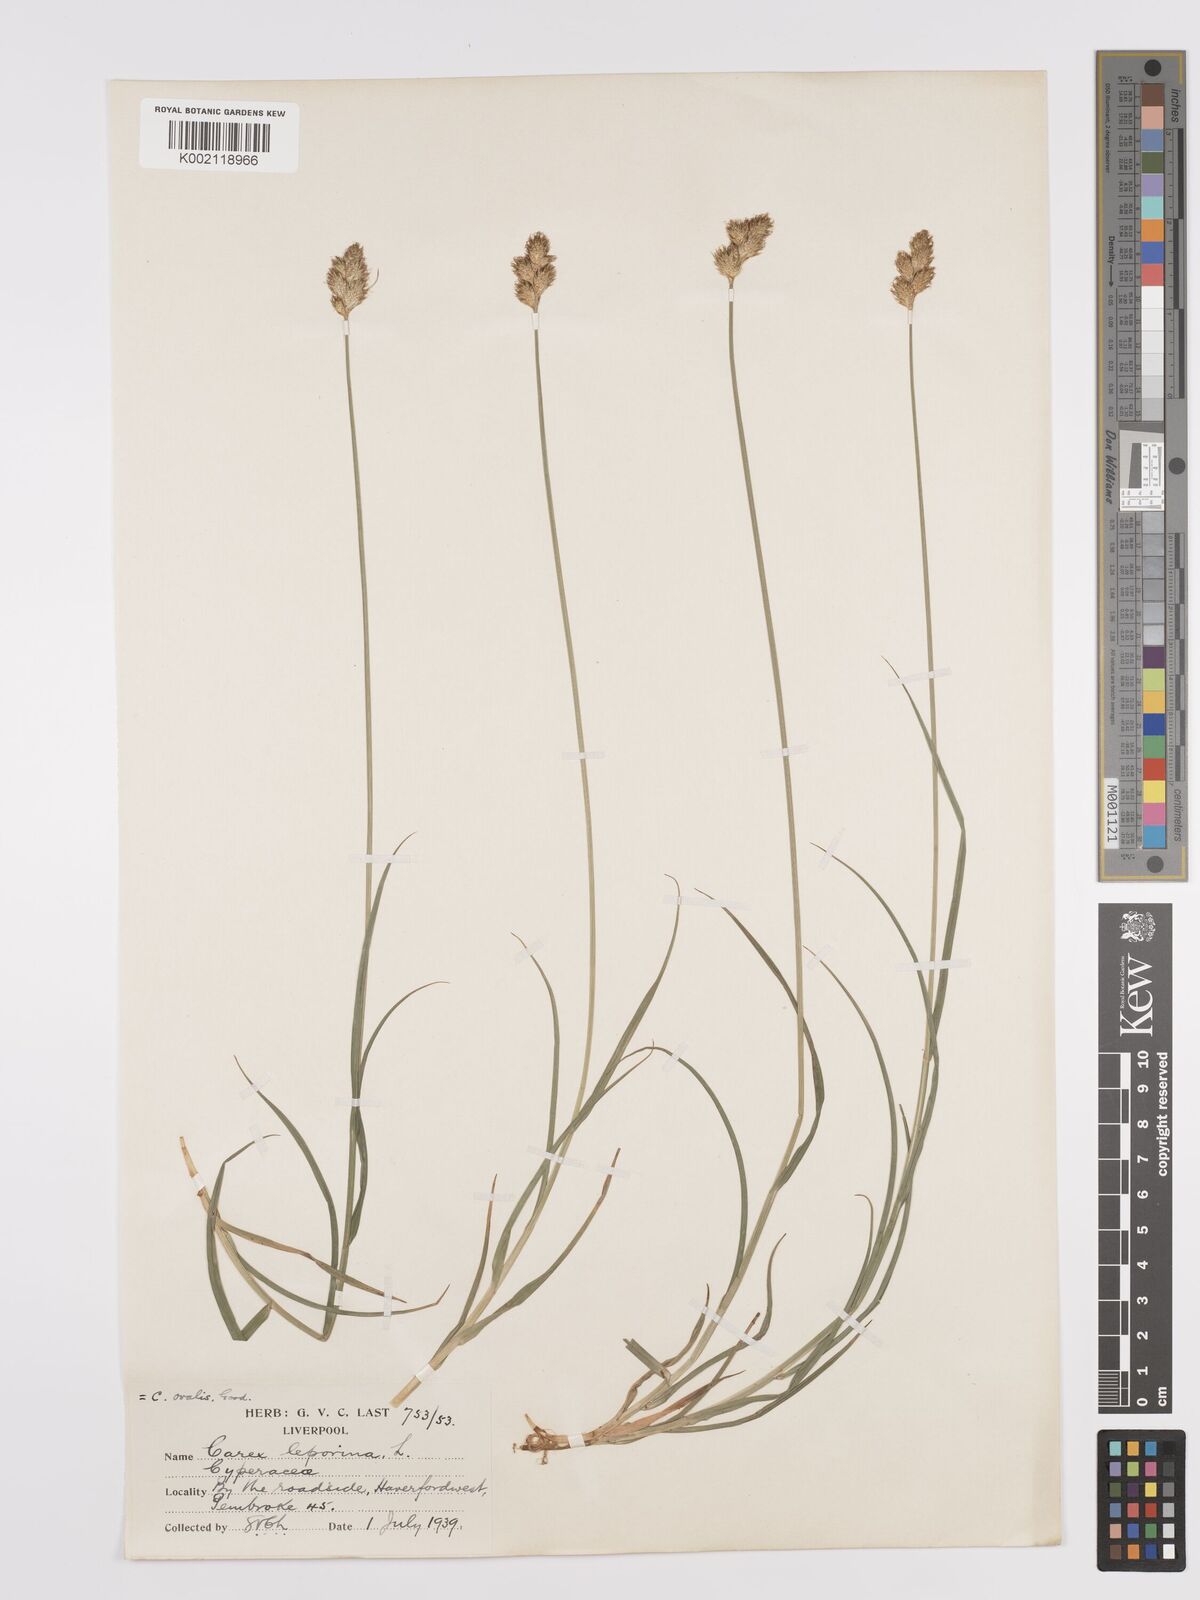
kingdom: Plantae
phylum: Tracheophyta
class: Liliopsida
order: Poales
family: Cyperaceae
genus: Carex
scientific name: Carex leporina
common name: Oval sedge
